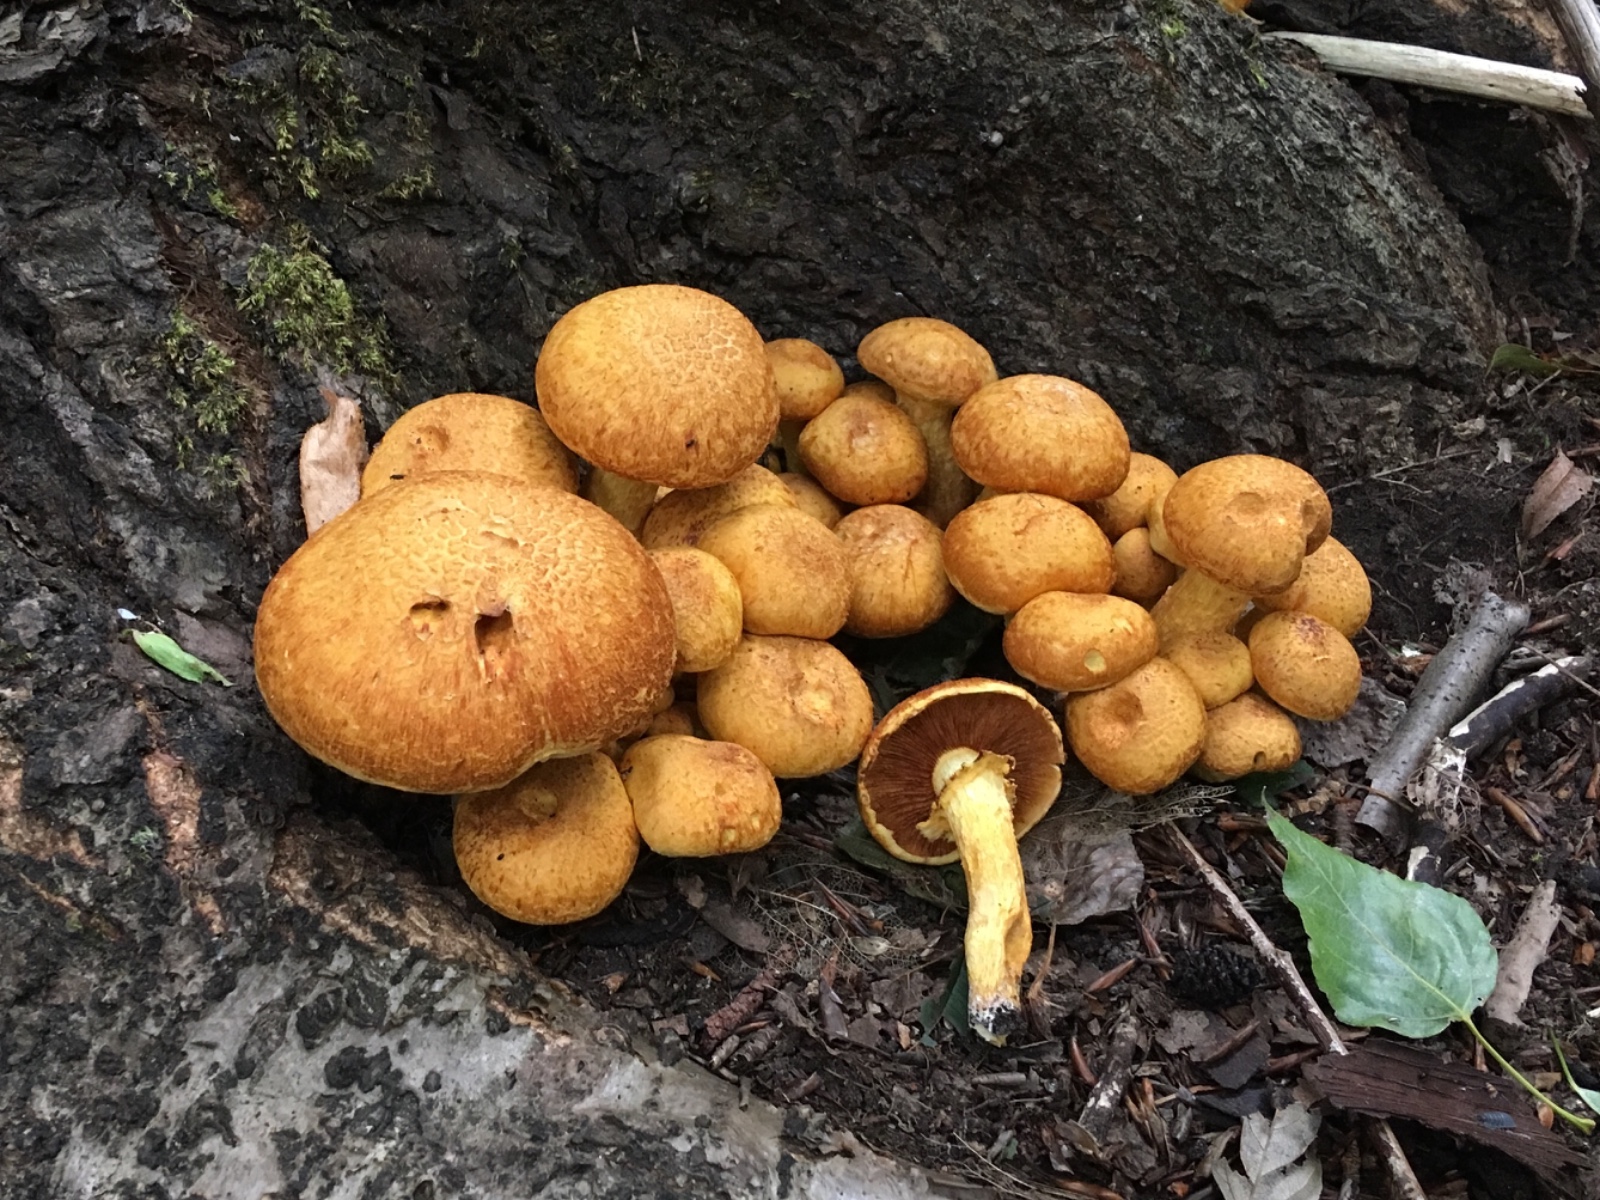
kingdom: Fungi
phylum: Basidiomycota
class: Agaricomycetes
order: Agaricales
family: Hymenogastraceae
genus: Gymnopilus
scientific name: Gymnopilus spectabilis
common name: fibret flammehat
